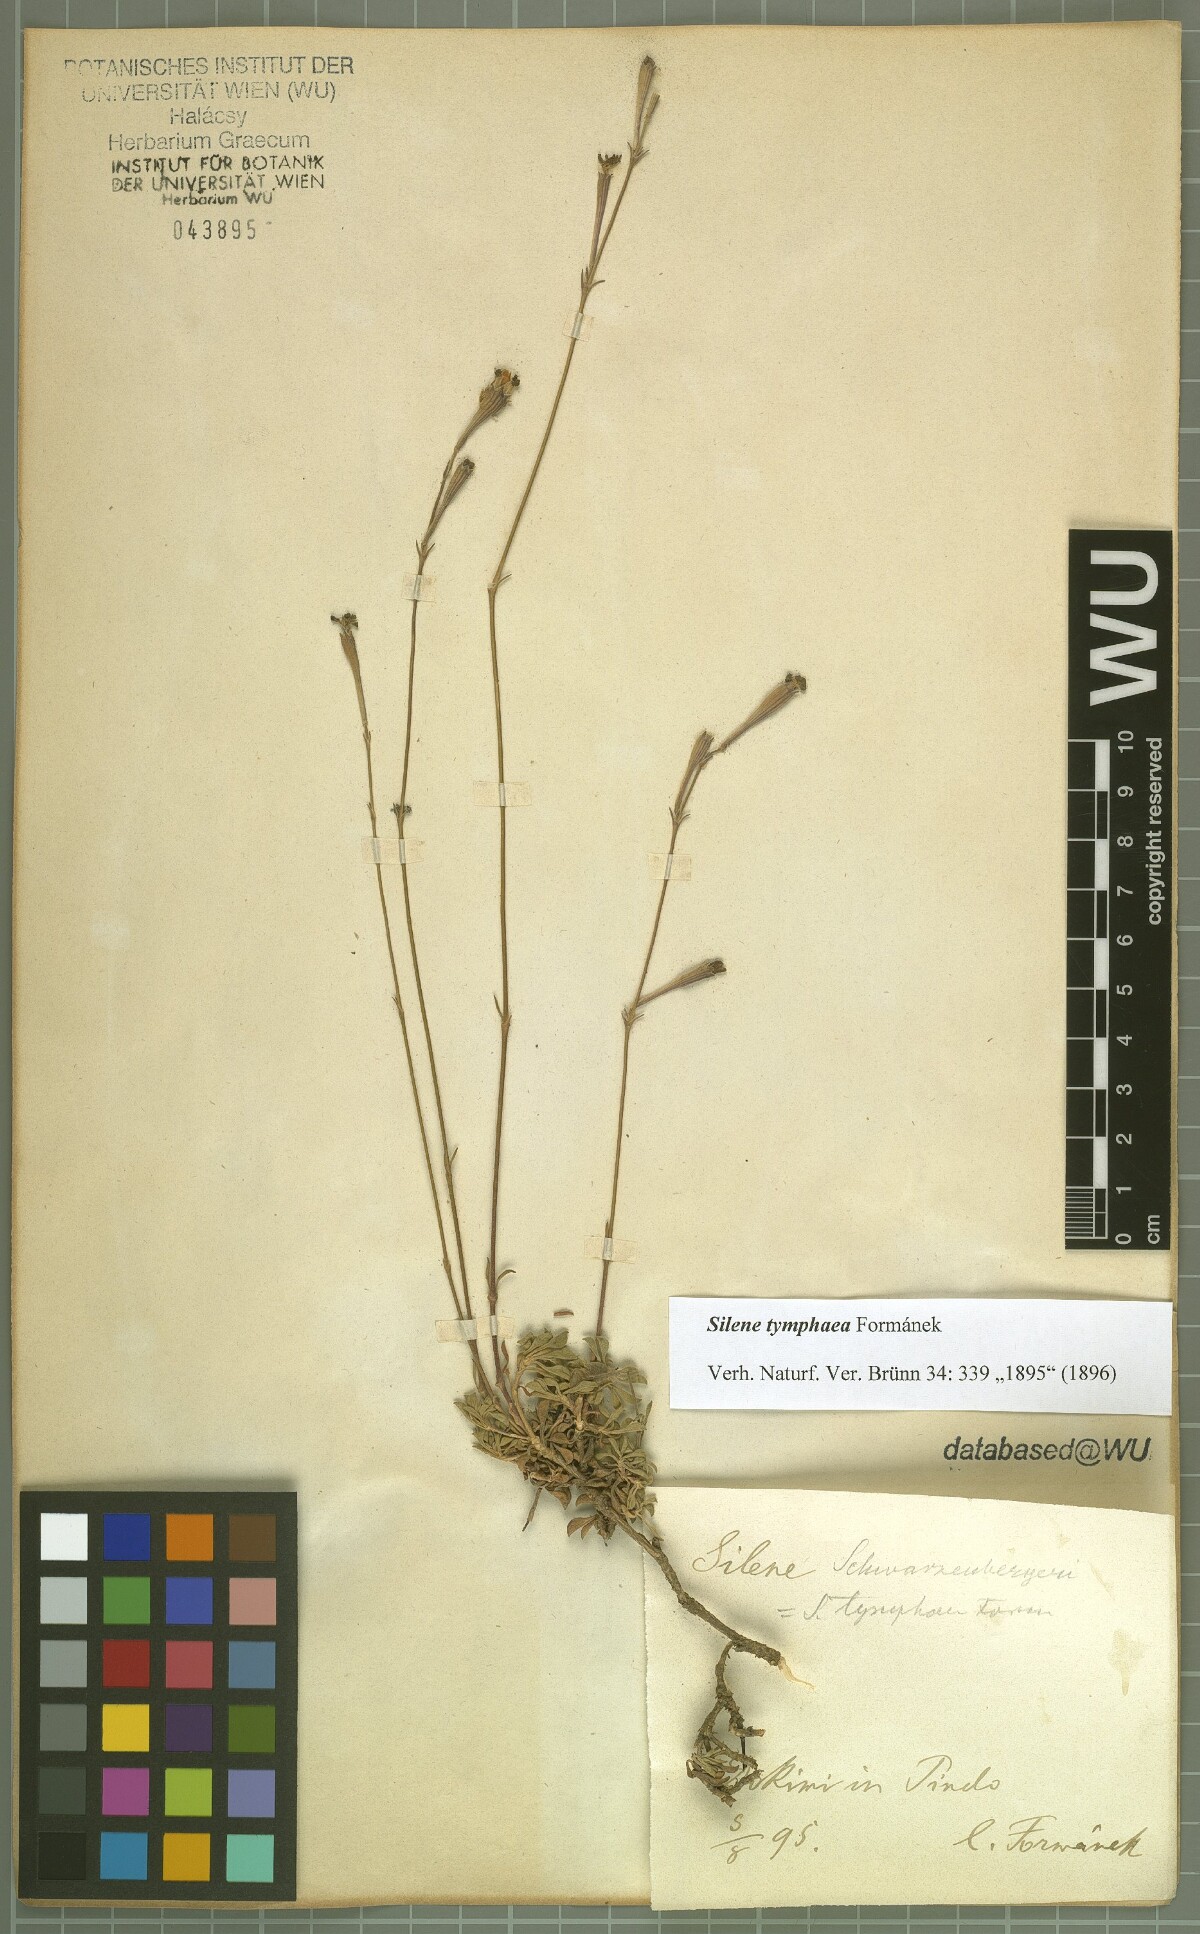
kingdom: Plantae
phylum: Tracheophyta
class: Magnoliopsida
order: Caryophyllales
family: Caryophyllaceae
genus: Silene
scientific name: Silene haussknechtii
